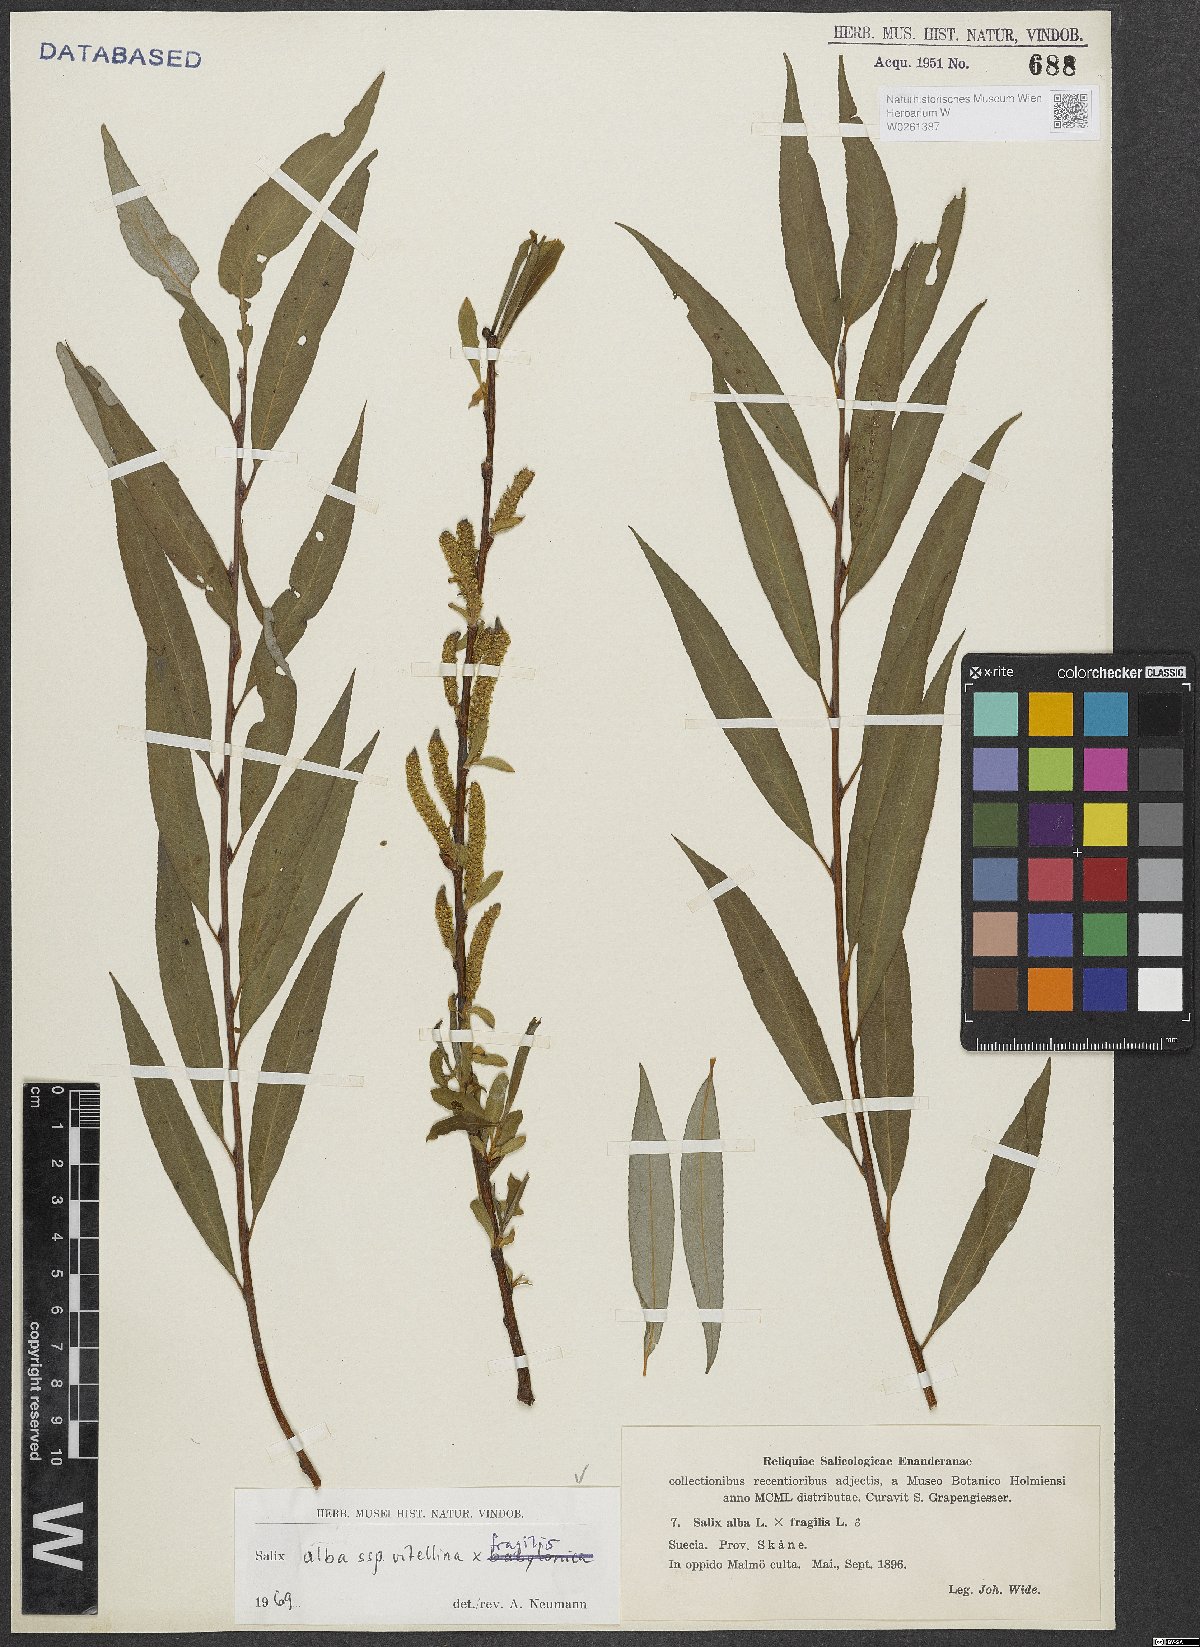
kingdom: Plantae
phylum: Tracheophyta
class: Magnoliopsida
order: Malpighiales
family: Salicaceae
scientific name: Salicaceae
